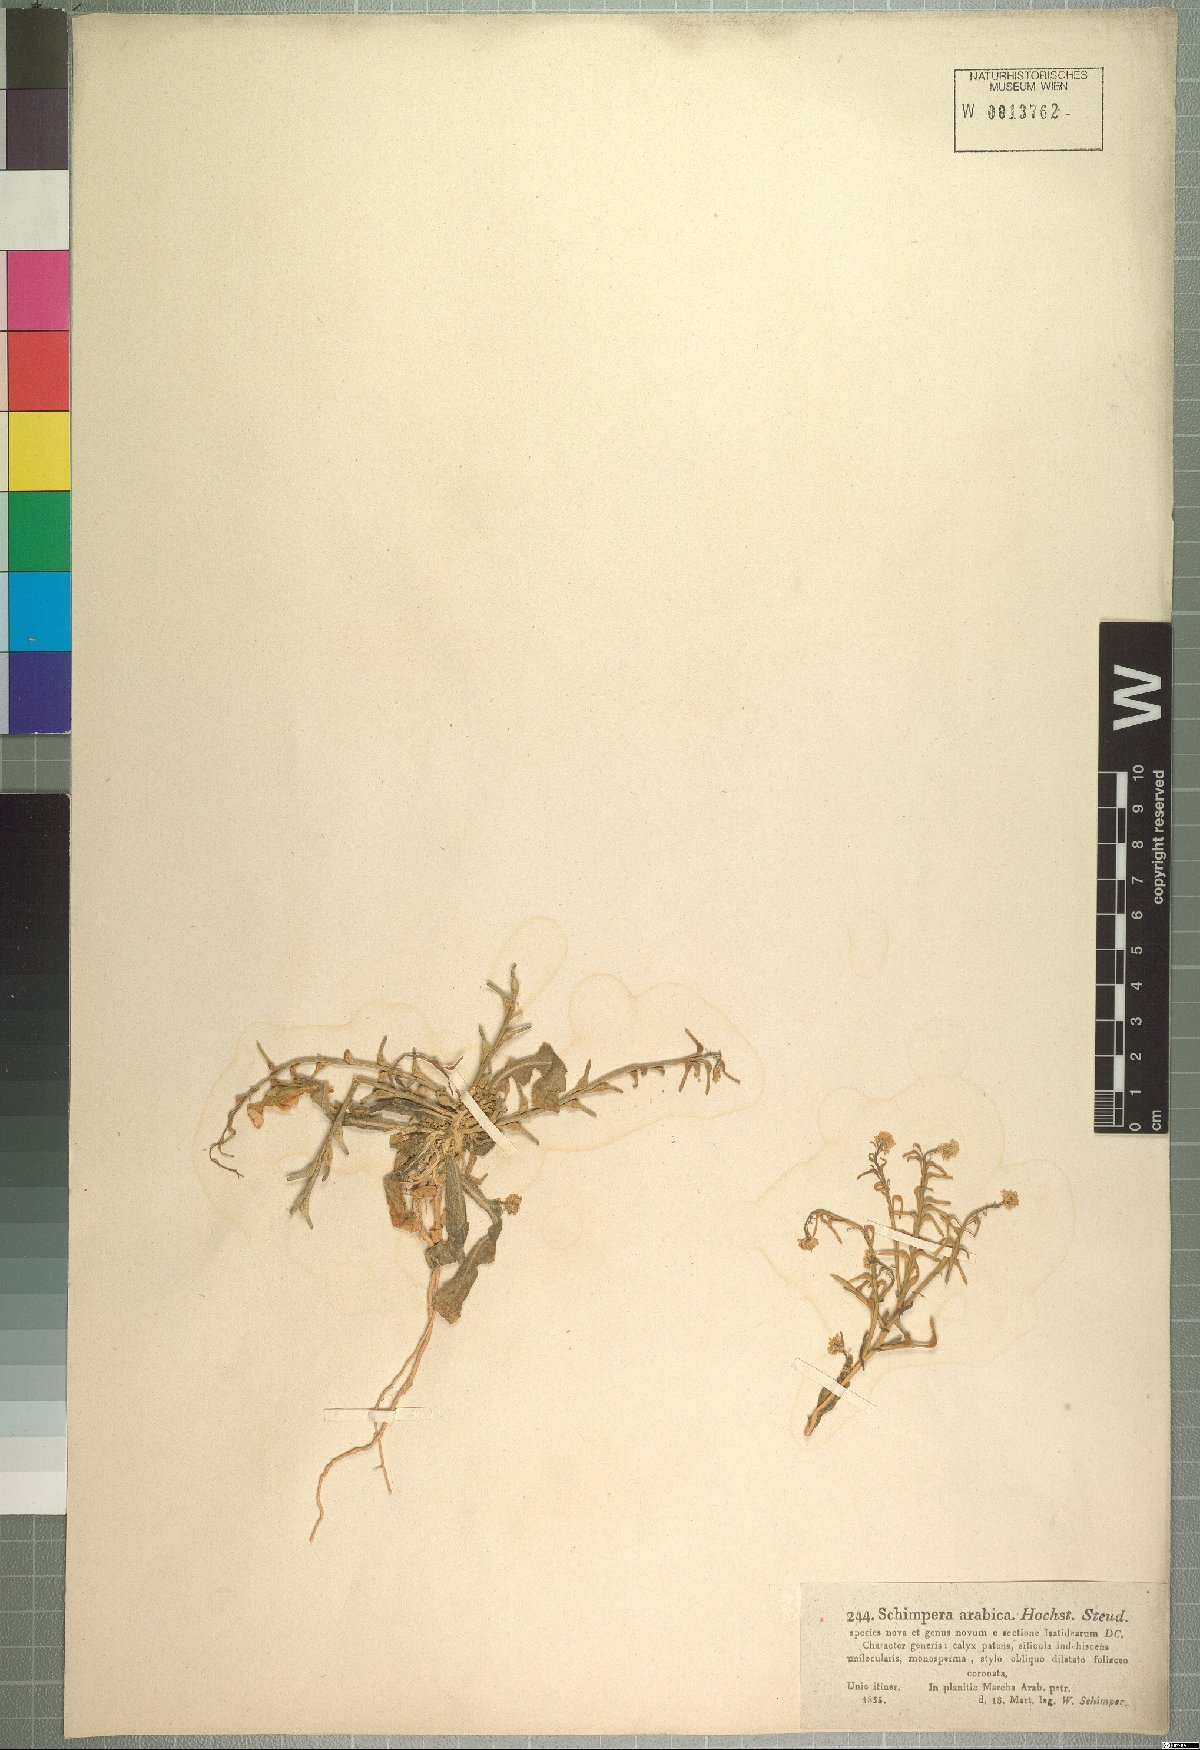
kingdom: Plantae
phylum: Tracheophyta
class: Magnoliopsida
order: Brassicales
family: Brassicaceae
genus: Schimpera
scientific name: Schimpera arabica
